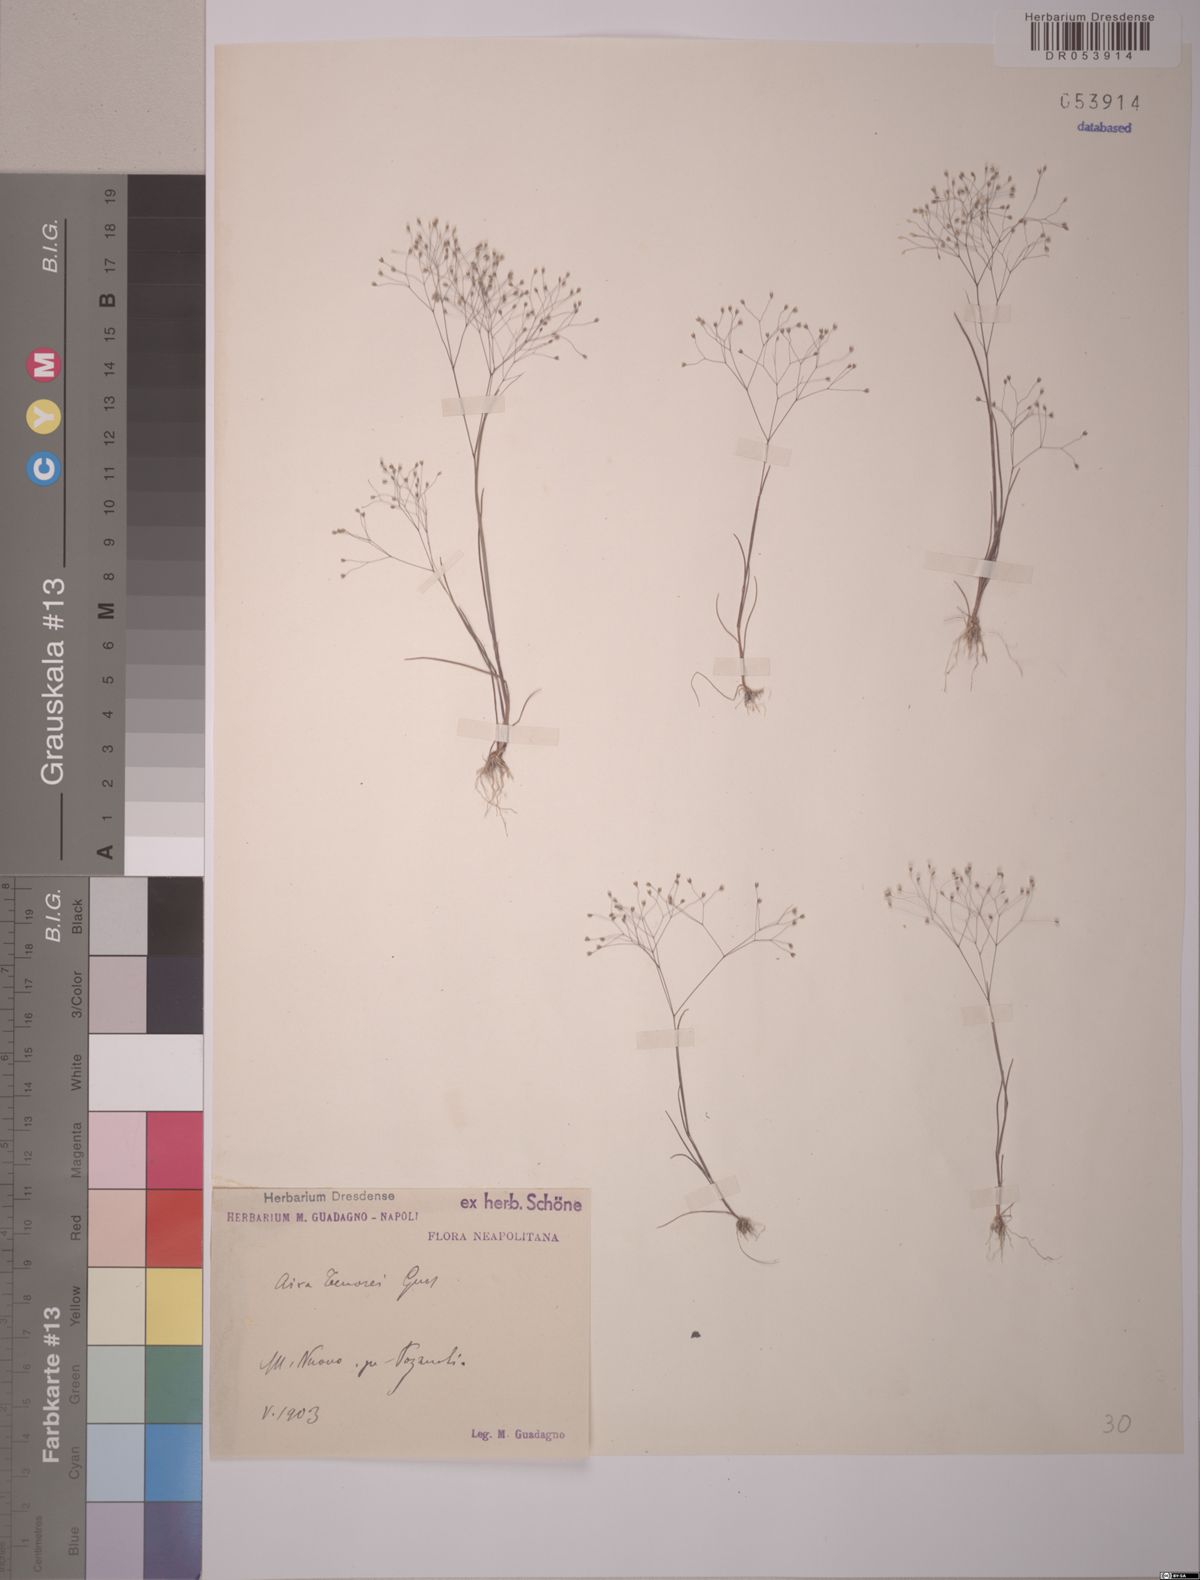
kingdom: Plantae
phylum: Tracheophyta
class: Liliopsida
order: Poales
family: Poaceae
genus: Aira
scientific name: Aira tenorei
